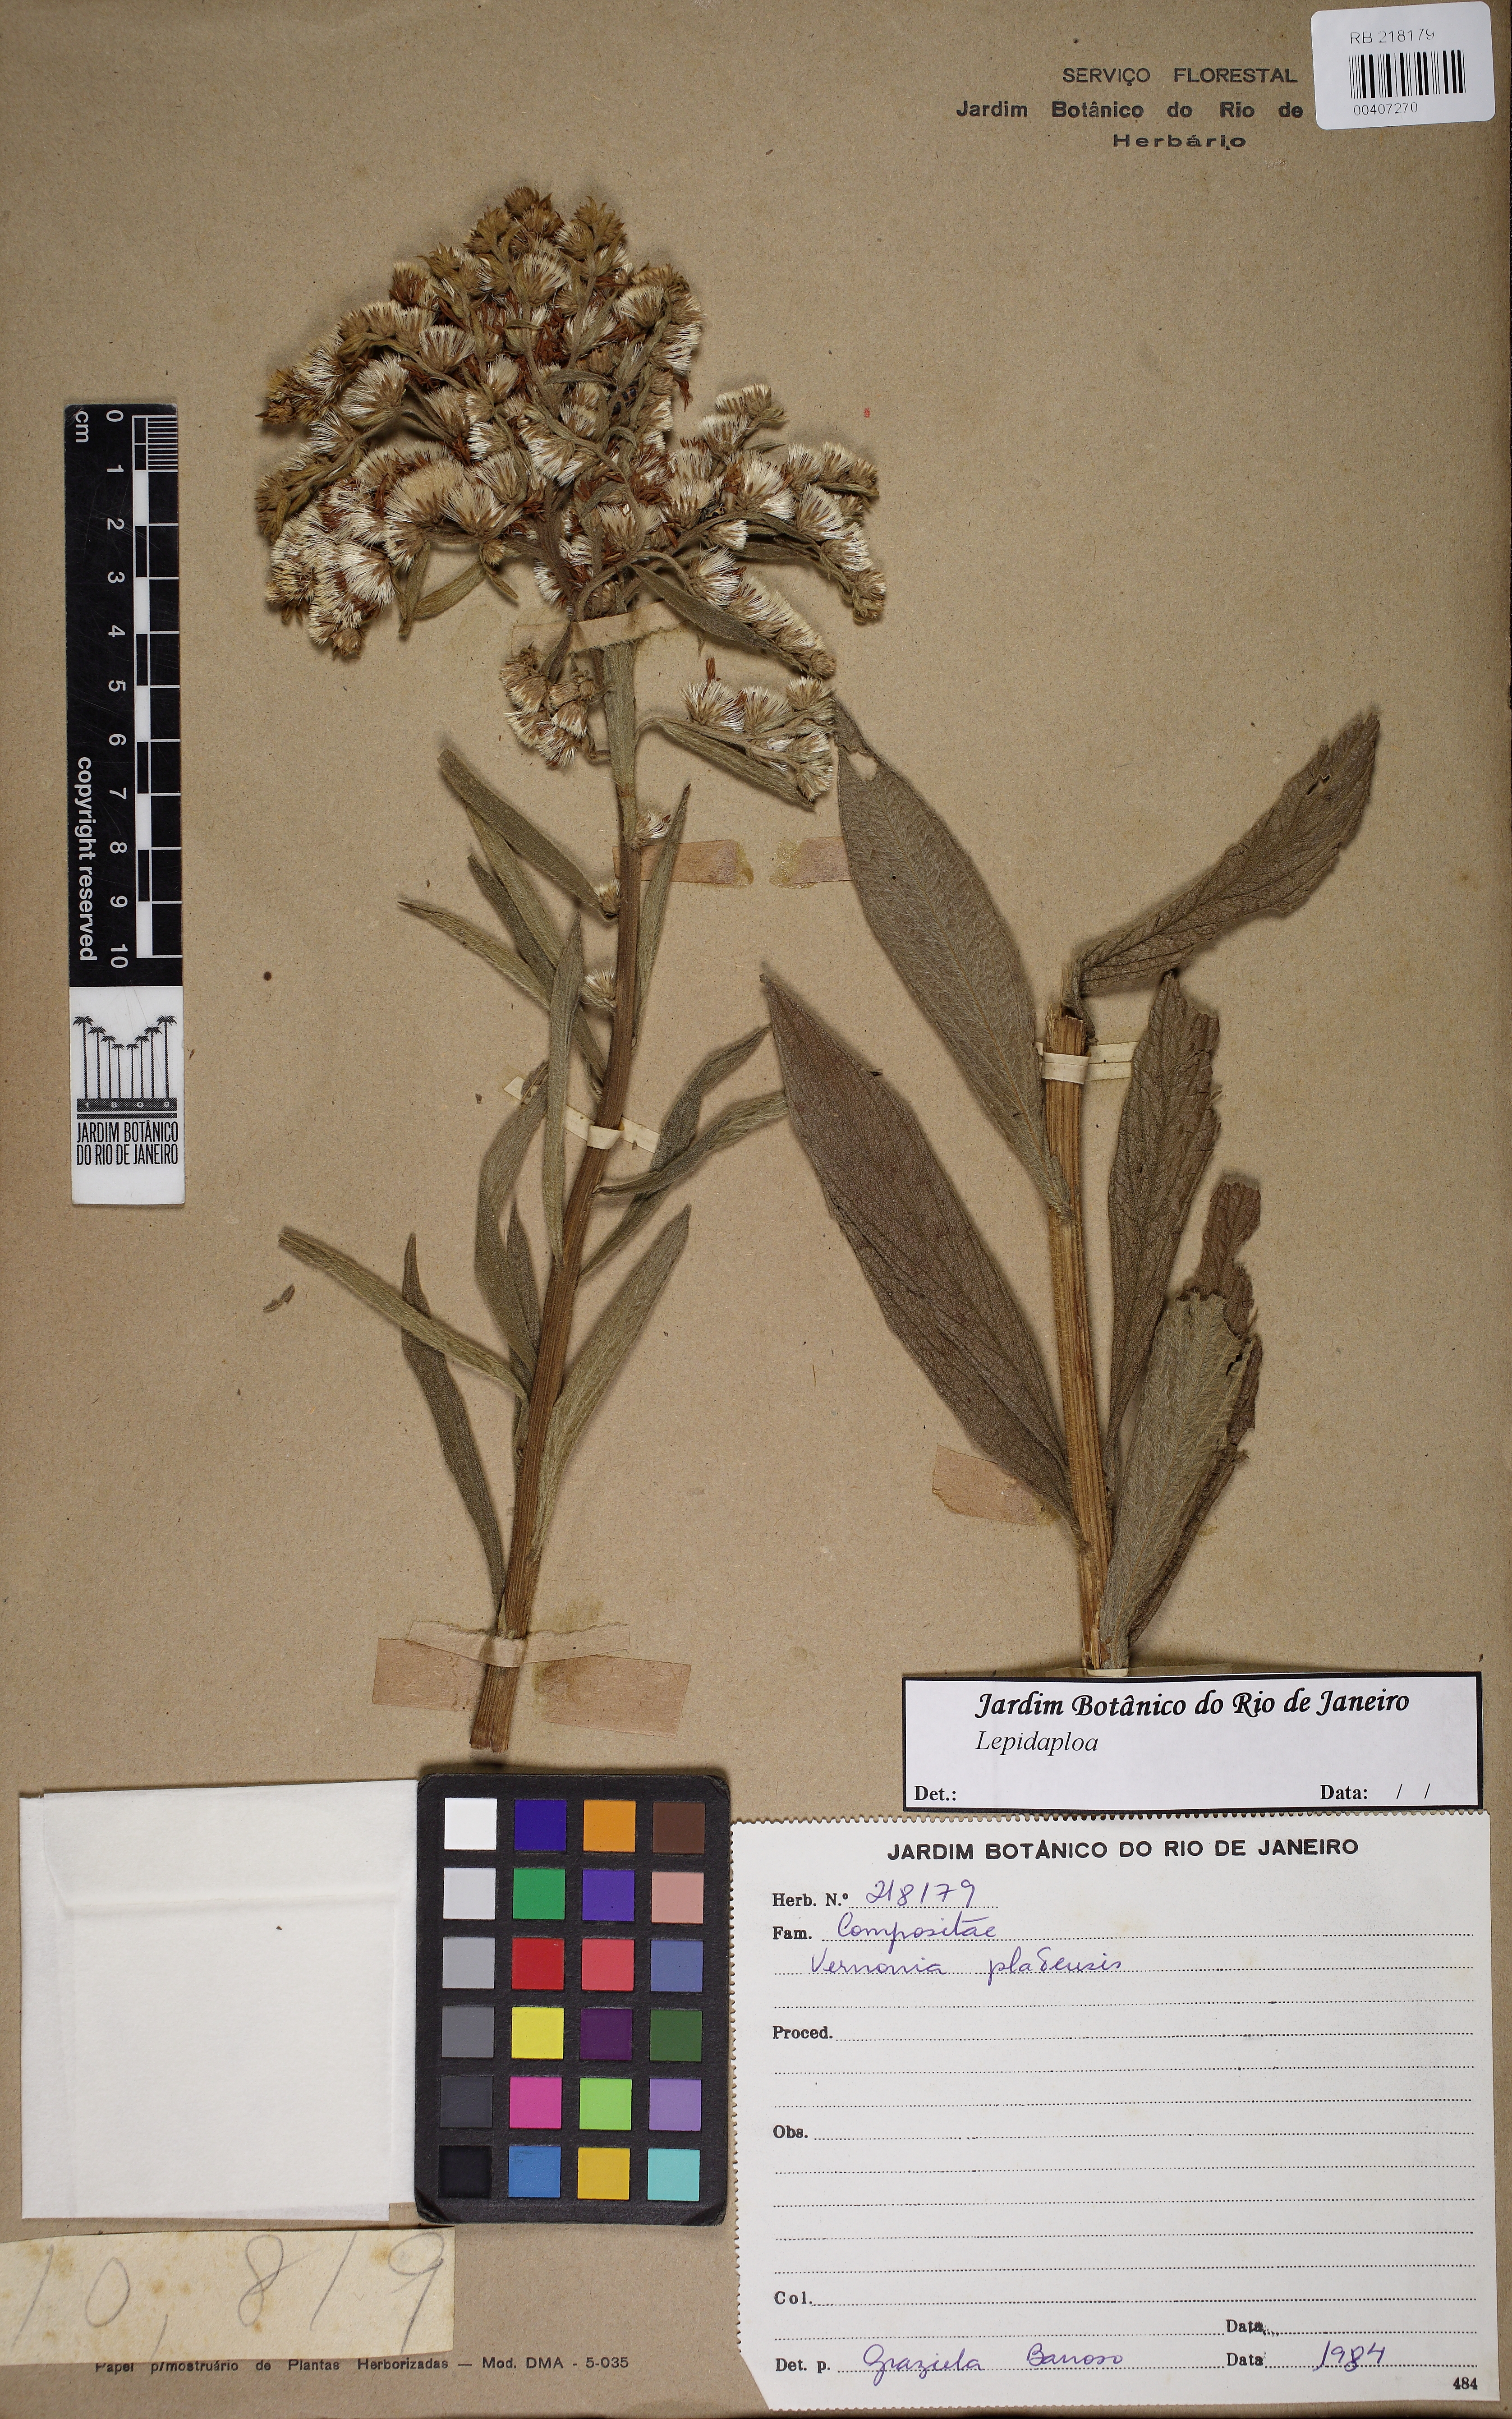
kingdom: Plantae
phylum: Tracheophyta
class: Magnoliopsida
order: Asterales
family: Asteraceae
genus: Lepidaploa
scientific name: Lepidaploa
